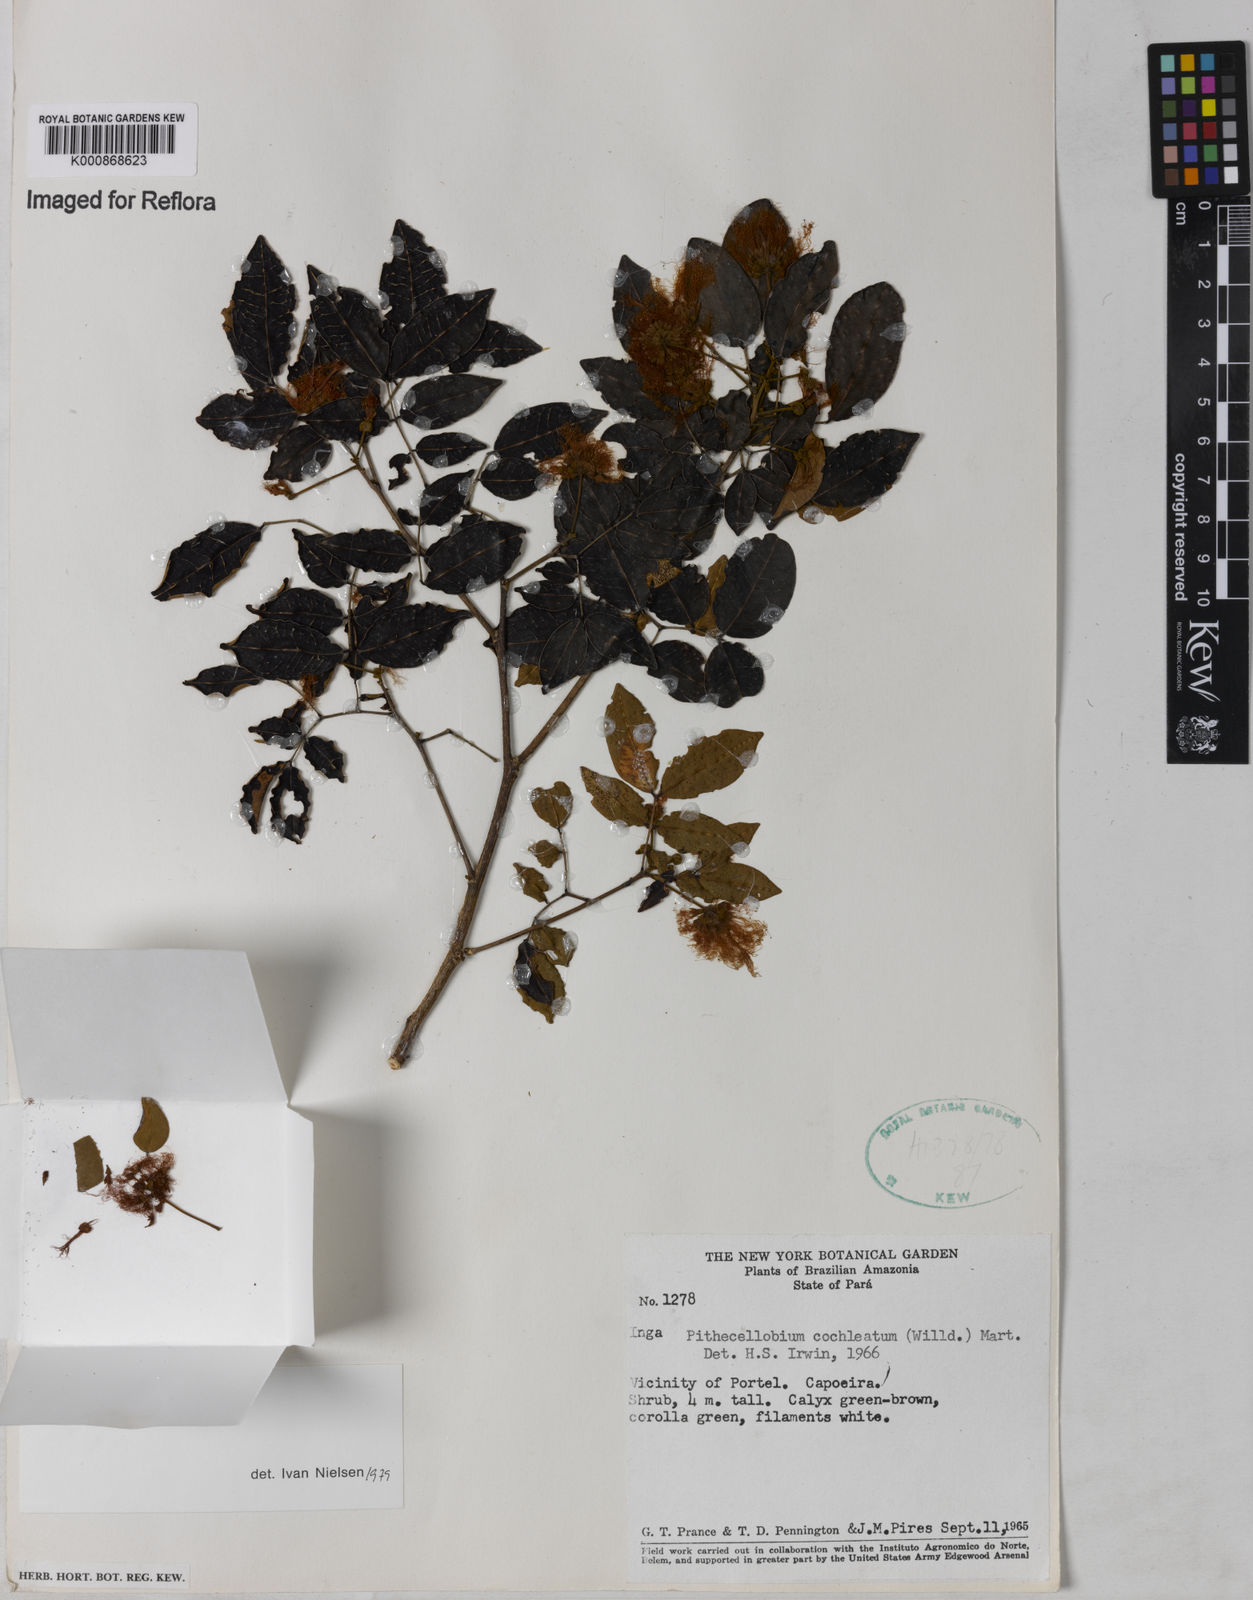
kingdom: Plantae
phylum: Tracheophyta
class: Magnoliopsida
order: Fabales
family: Fabaceae
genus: Jupunba
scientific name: Jupunba cochleata
